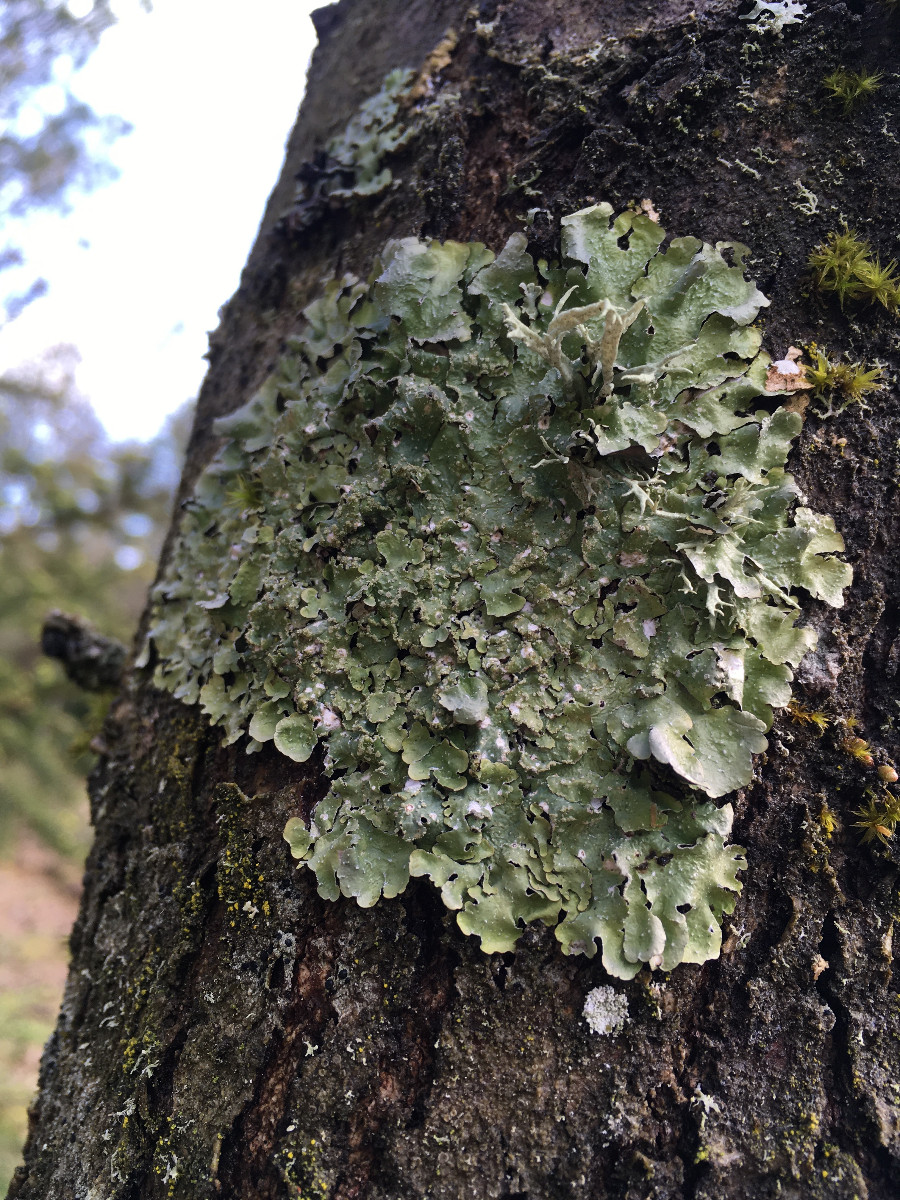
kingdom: Fungi
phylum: Ascomycota
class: Lecanoromycetes
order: Lecanorales
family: Parmeliaceae
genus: Flavopunctelia
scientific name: Flavopunctelia flaventior
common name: plettet skållav
